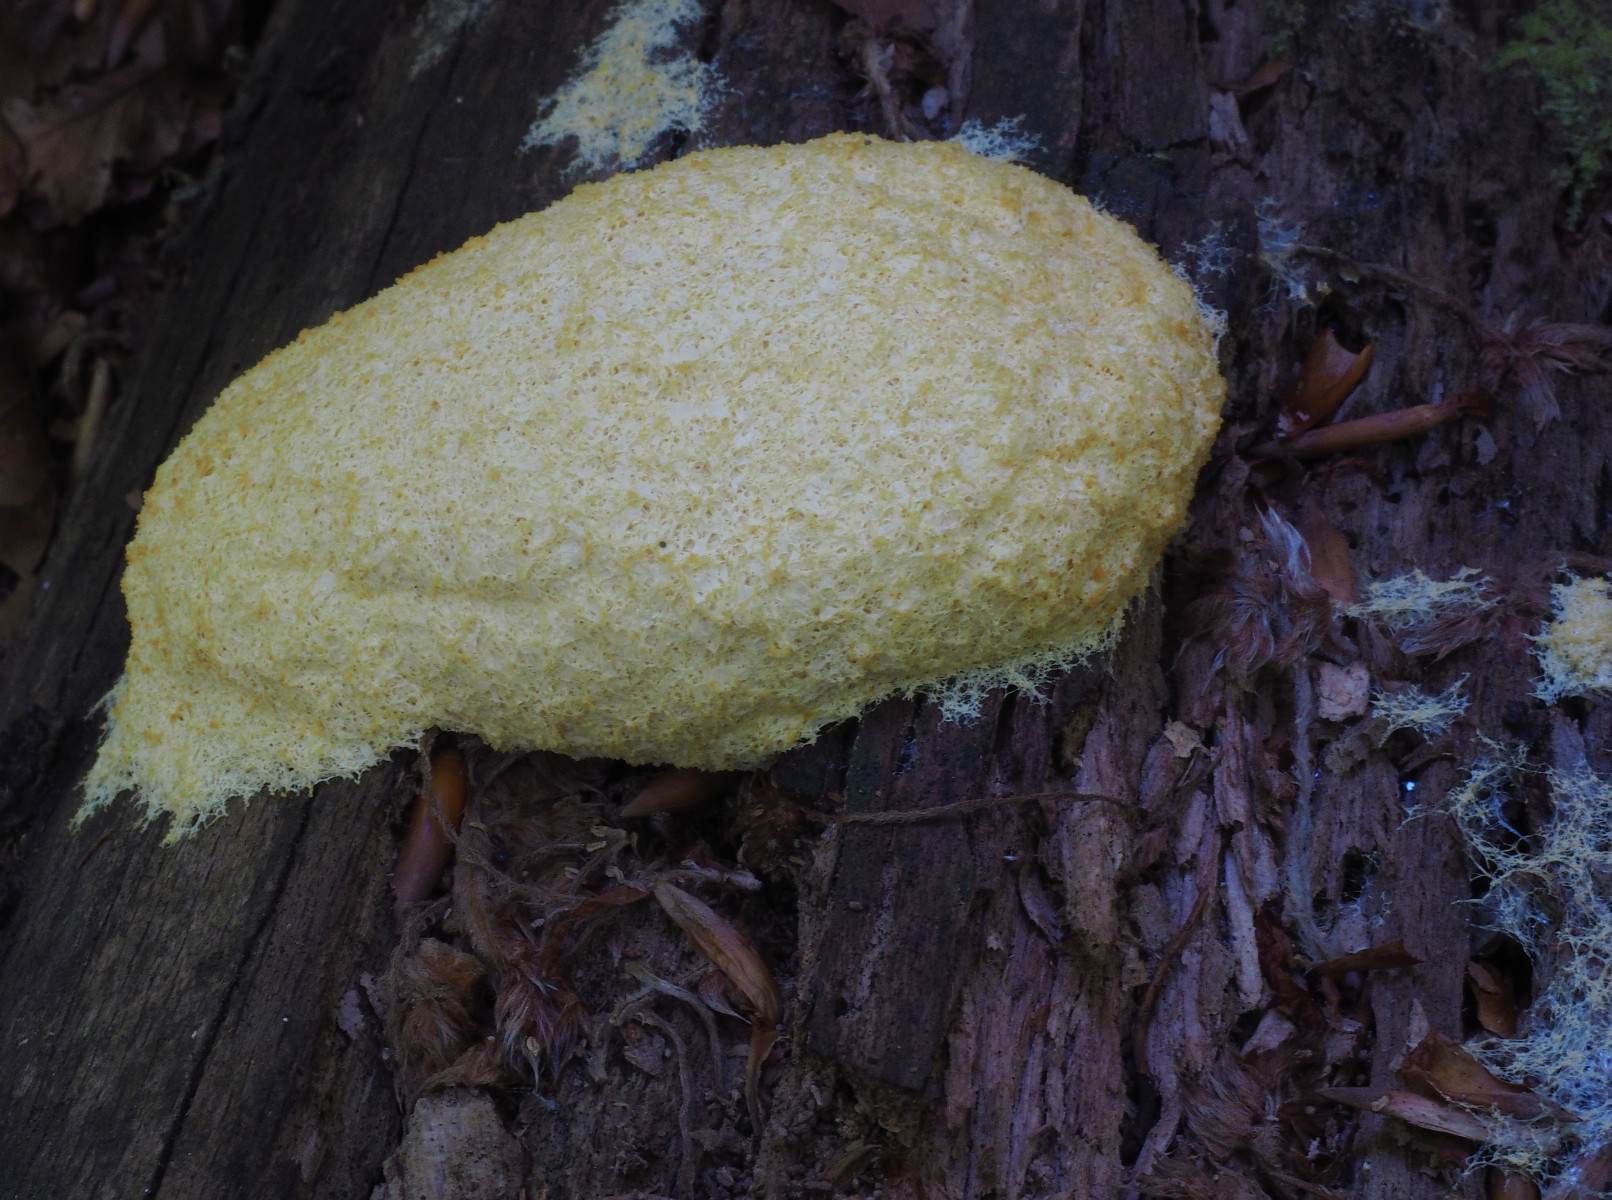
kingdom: Protozoa
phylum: Mycetozoa
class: Myxomycetes
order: Physarales
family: Physaraceae
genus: Fuligo
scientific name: Fuligo septica
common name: gul troldsmør
